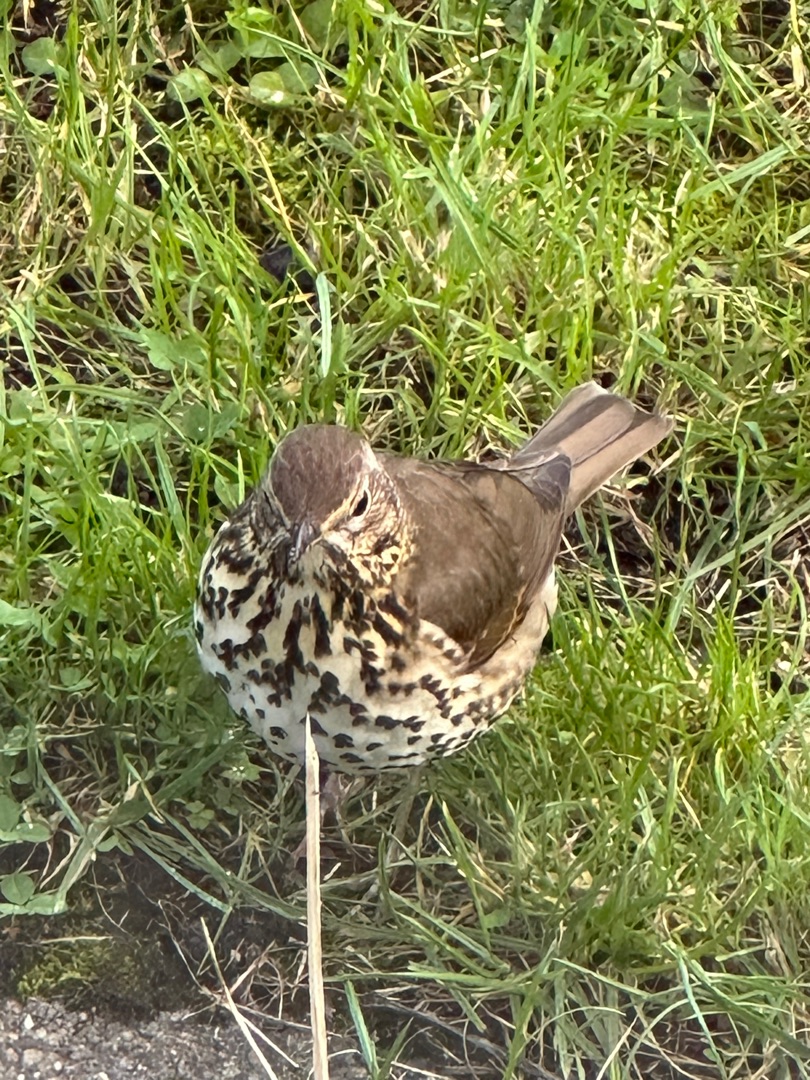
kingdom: Animalia
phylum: Chordata
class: Aves
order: Passeriformes
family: Turdidae
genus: Turdus
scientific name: Turdus philomelos
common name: Sangdrossel
